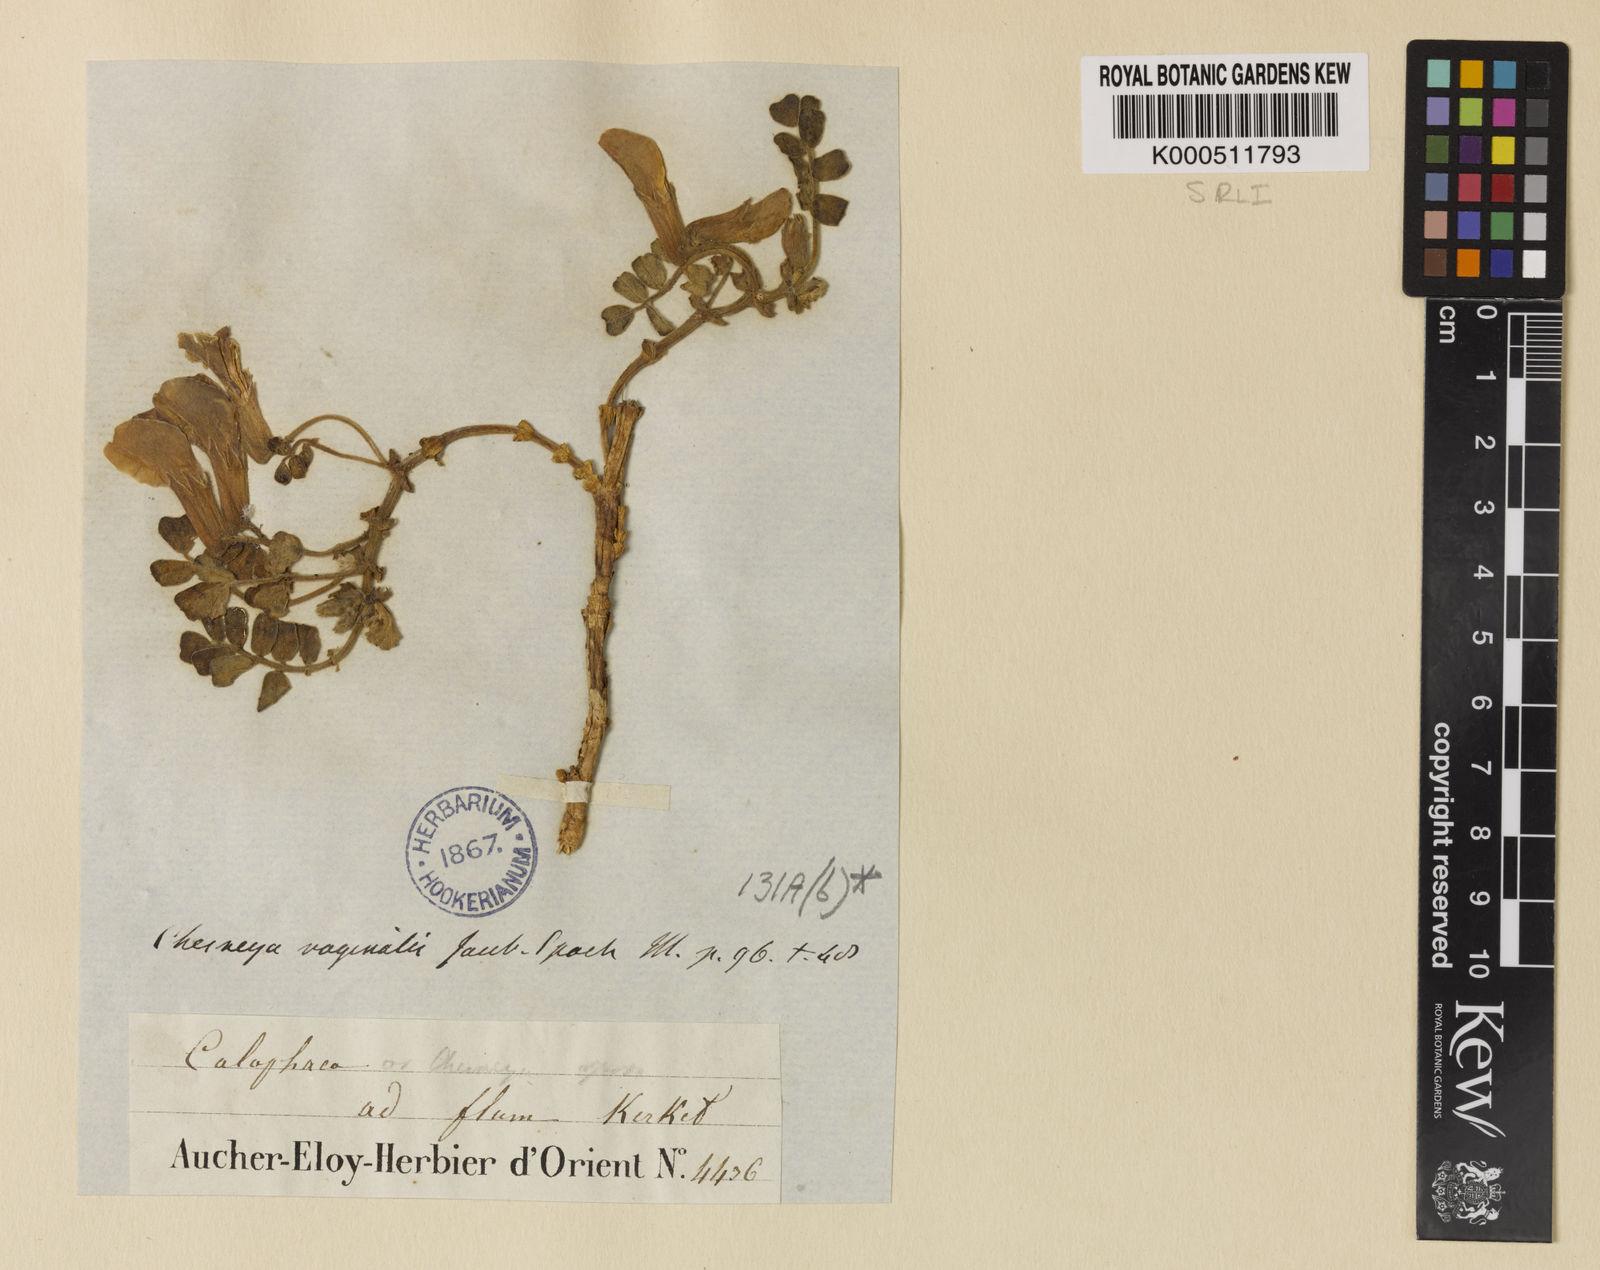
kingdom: Plantae
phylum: Tracheophyta
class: Magnoliopsida
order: Fabales
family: Fabaceae
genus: Chesneya
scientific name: Chesneya vaginalis
